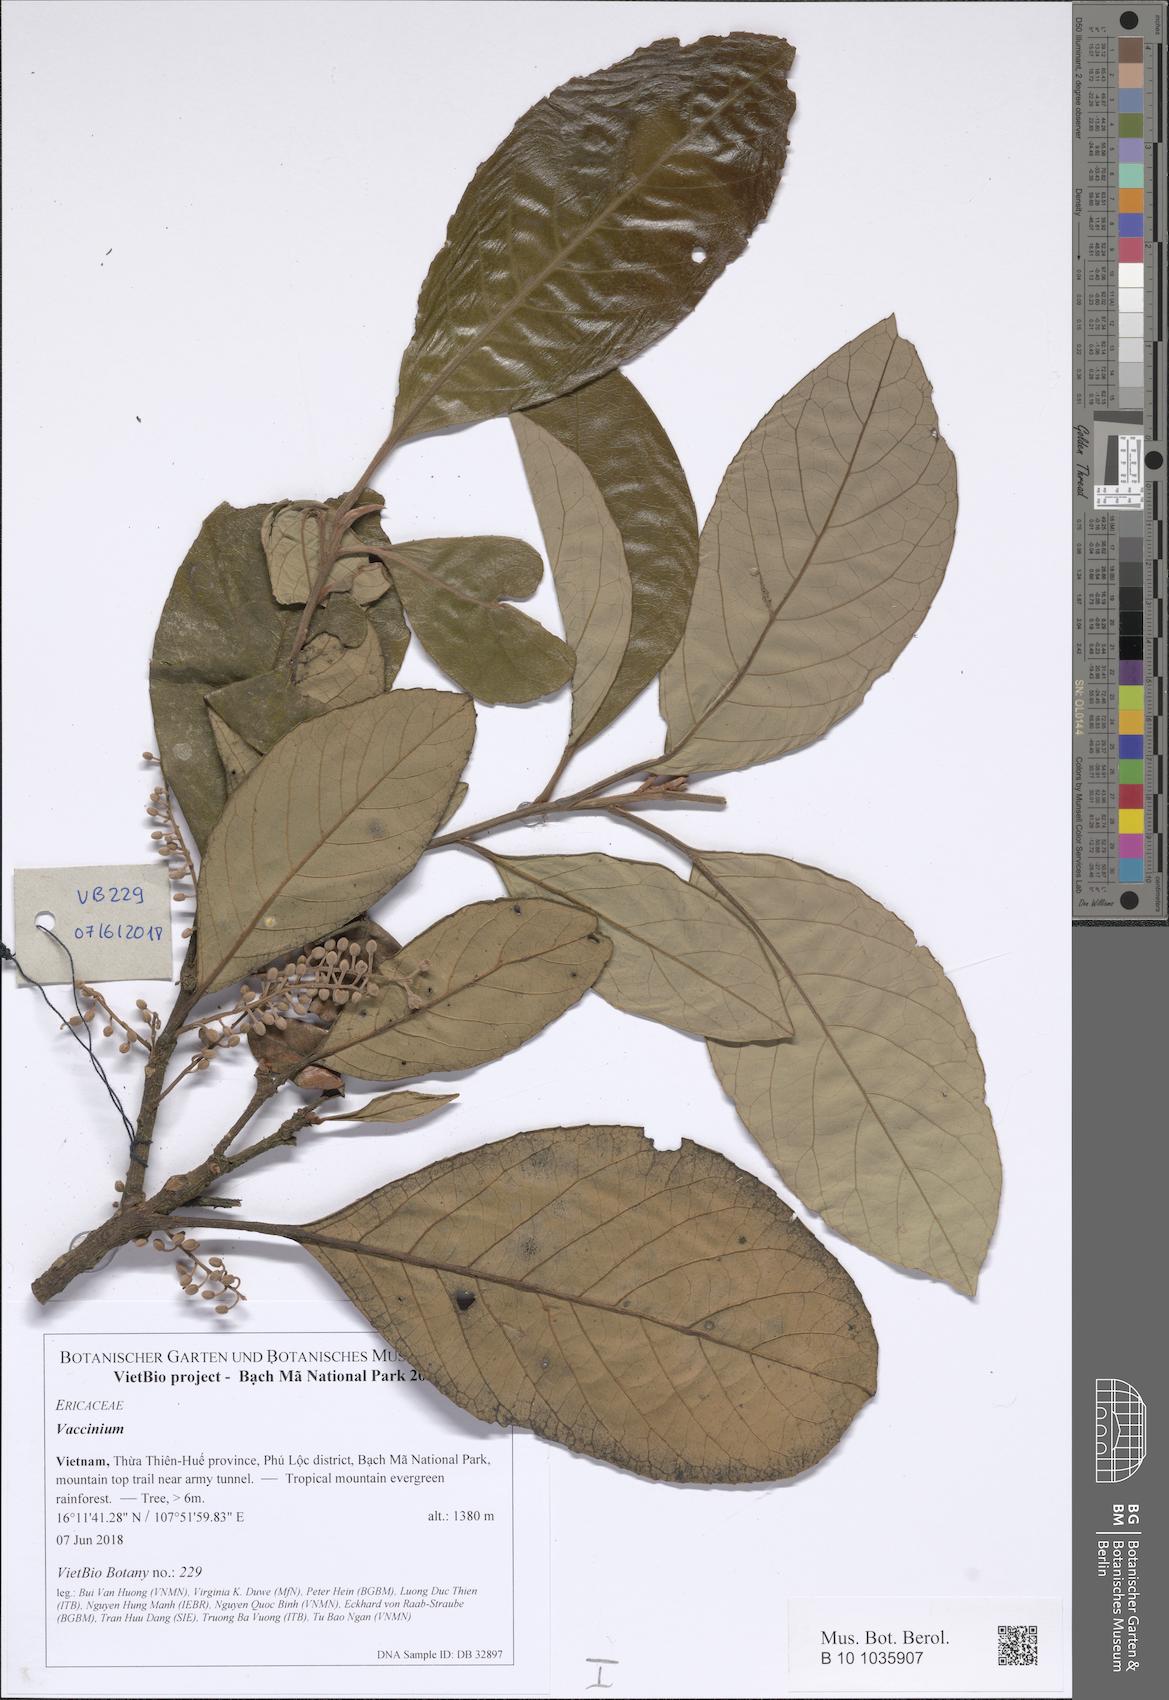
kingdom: Plantae
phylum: Tracheophyta
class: Magnoliopsida
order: Ericales
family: Ericaceae
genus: Lyonia
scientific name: Lyonia ovalifolia
